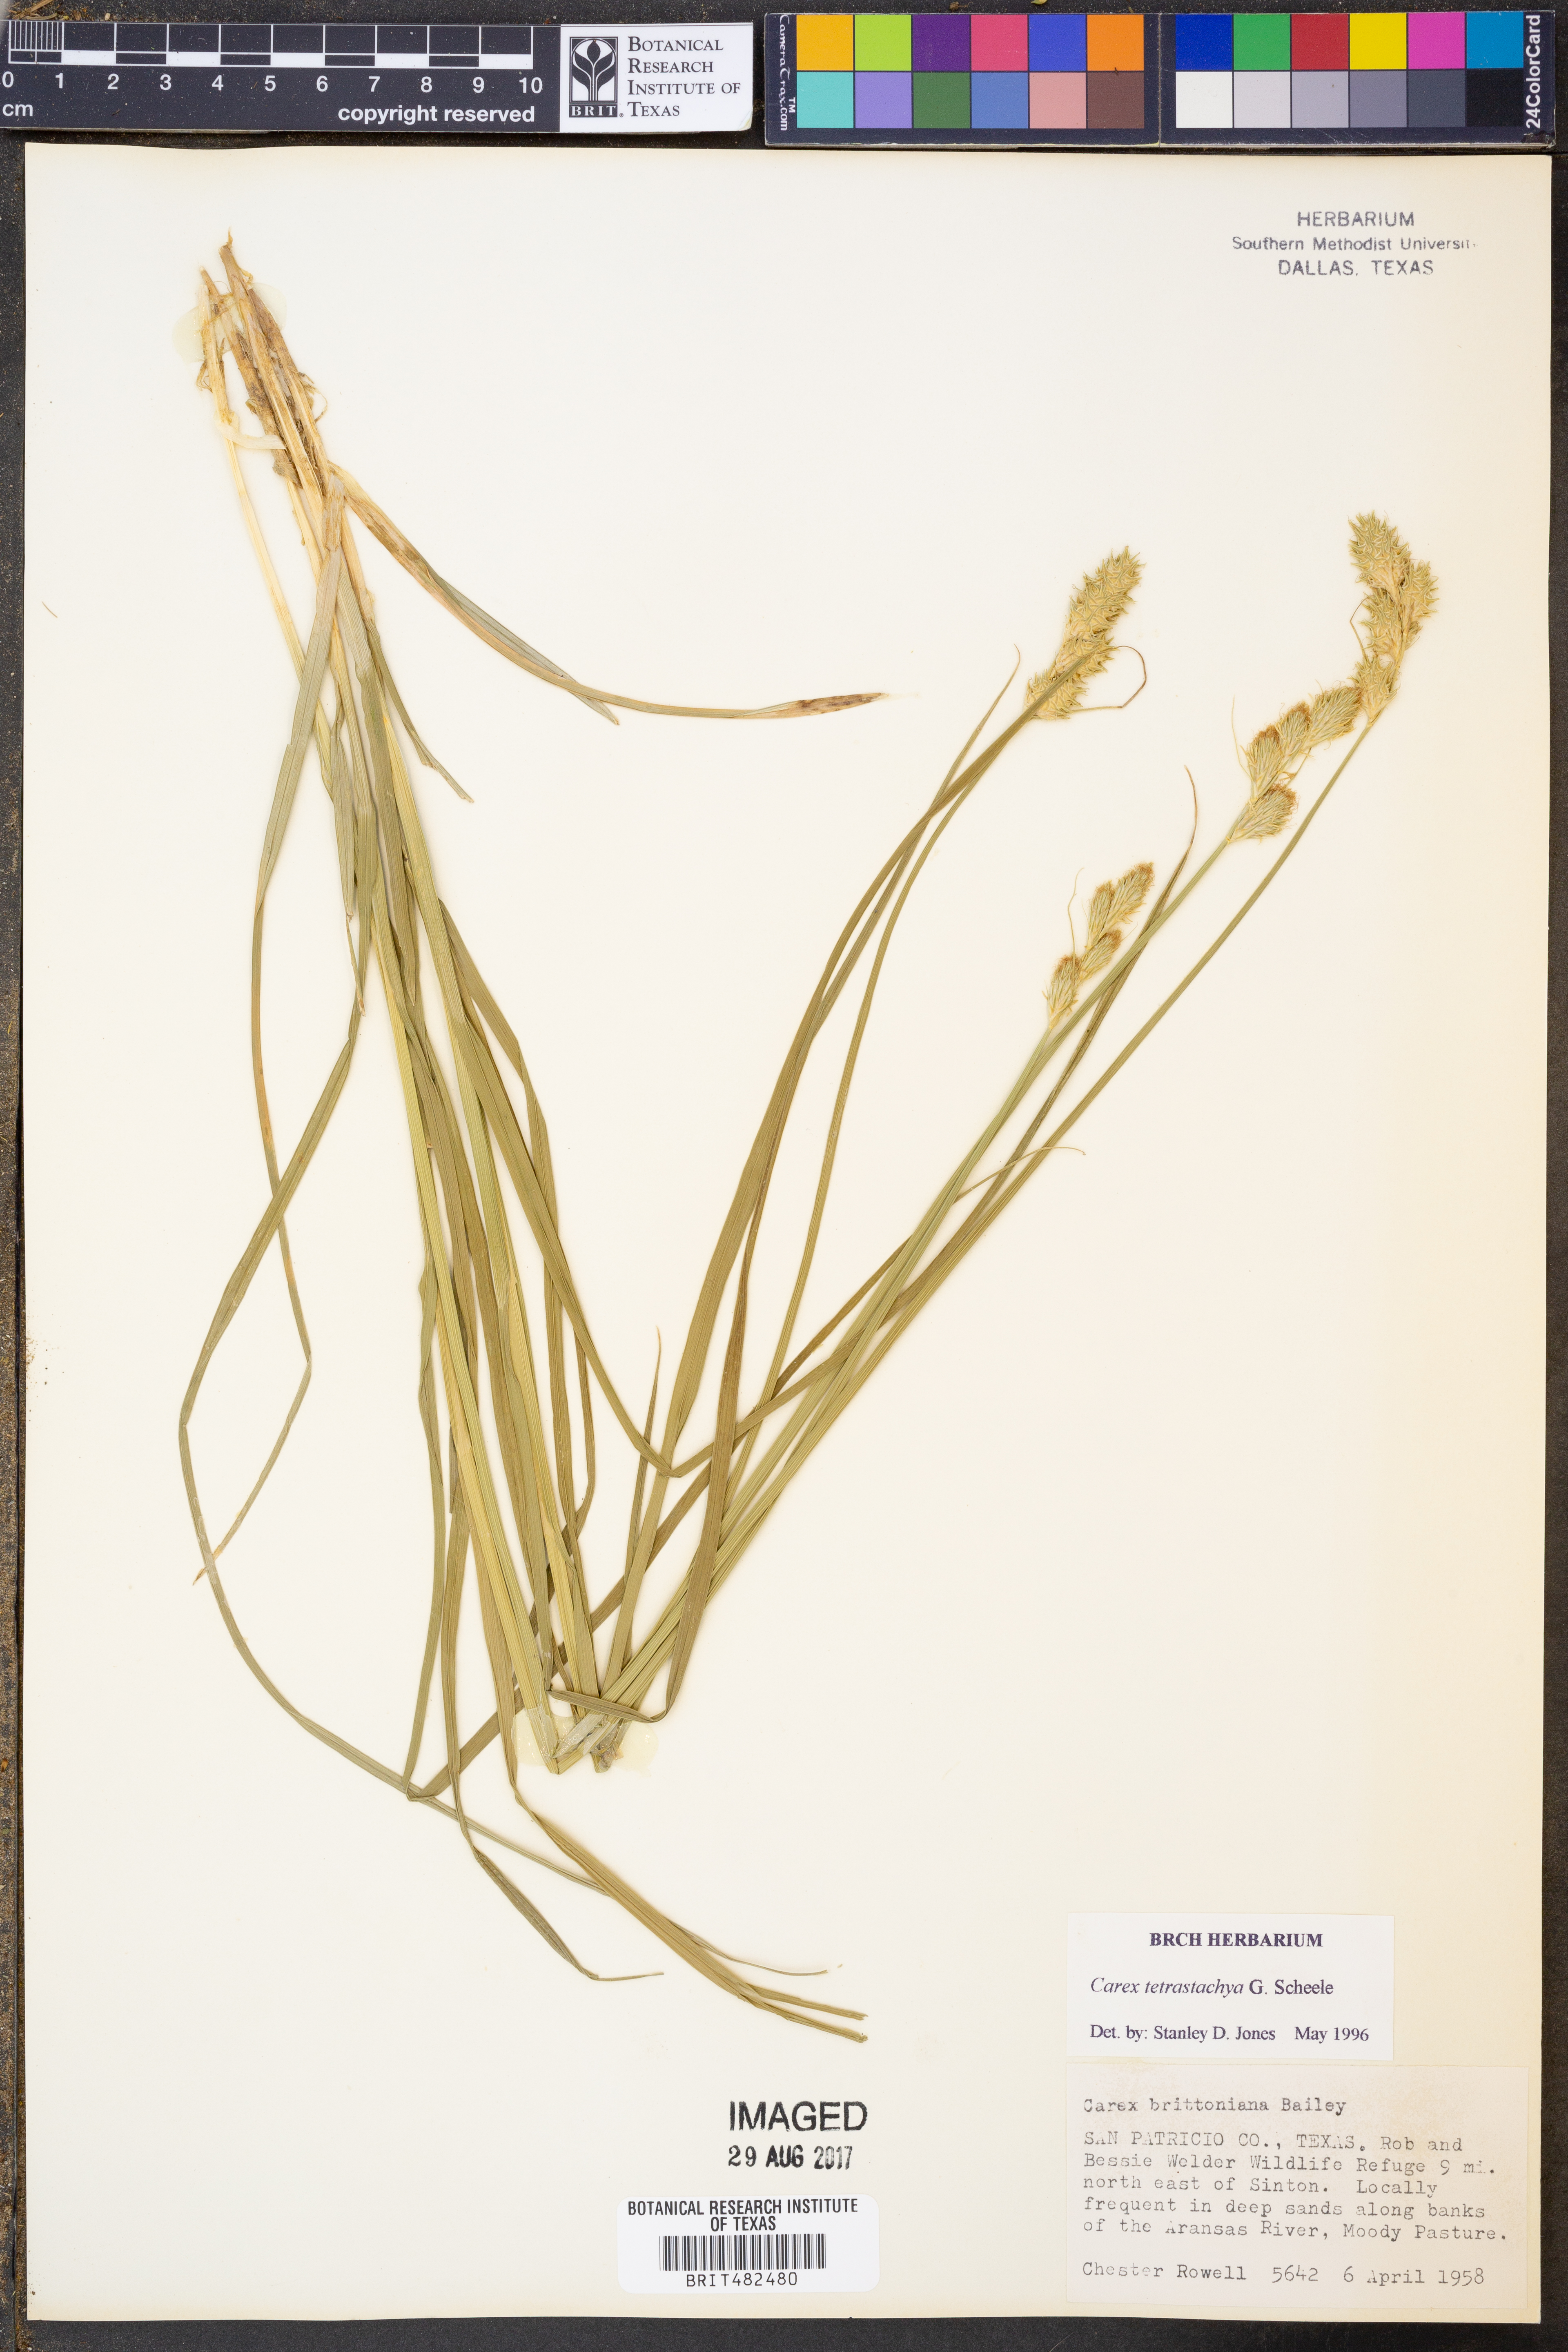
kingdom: Plantae
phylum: Tracheophyta
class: Liliopsida
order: Poales
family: Cyperaceae
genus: Carex
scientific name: Carex tetrastachya
